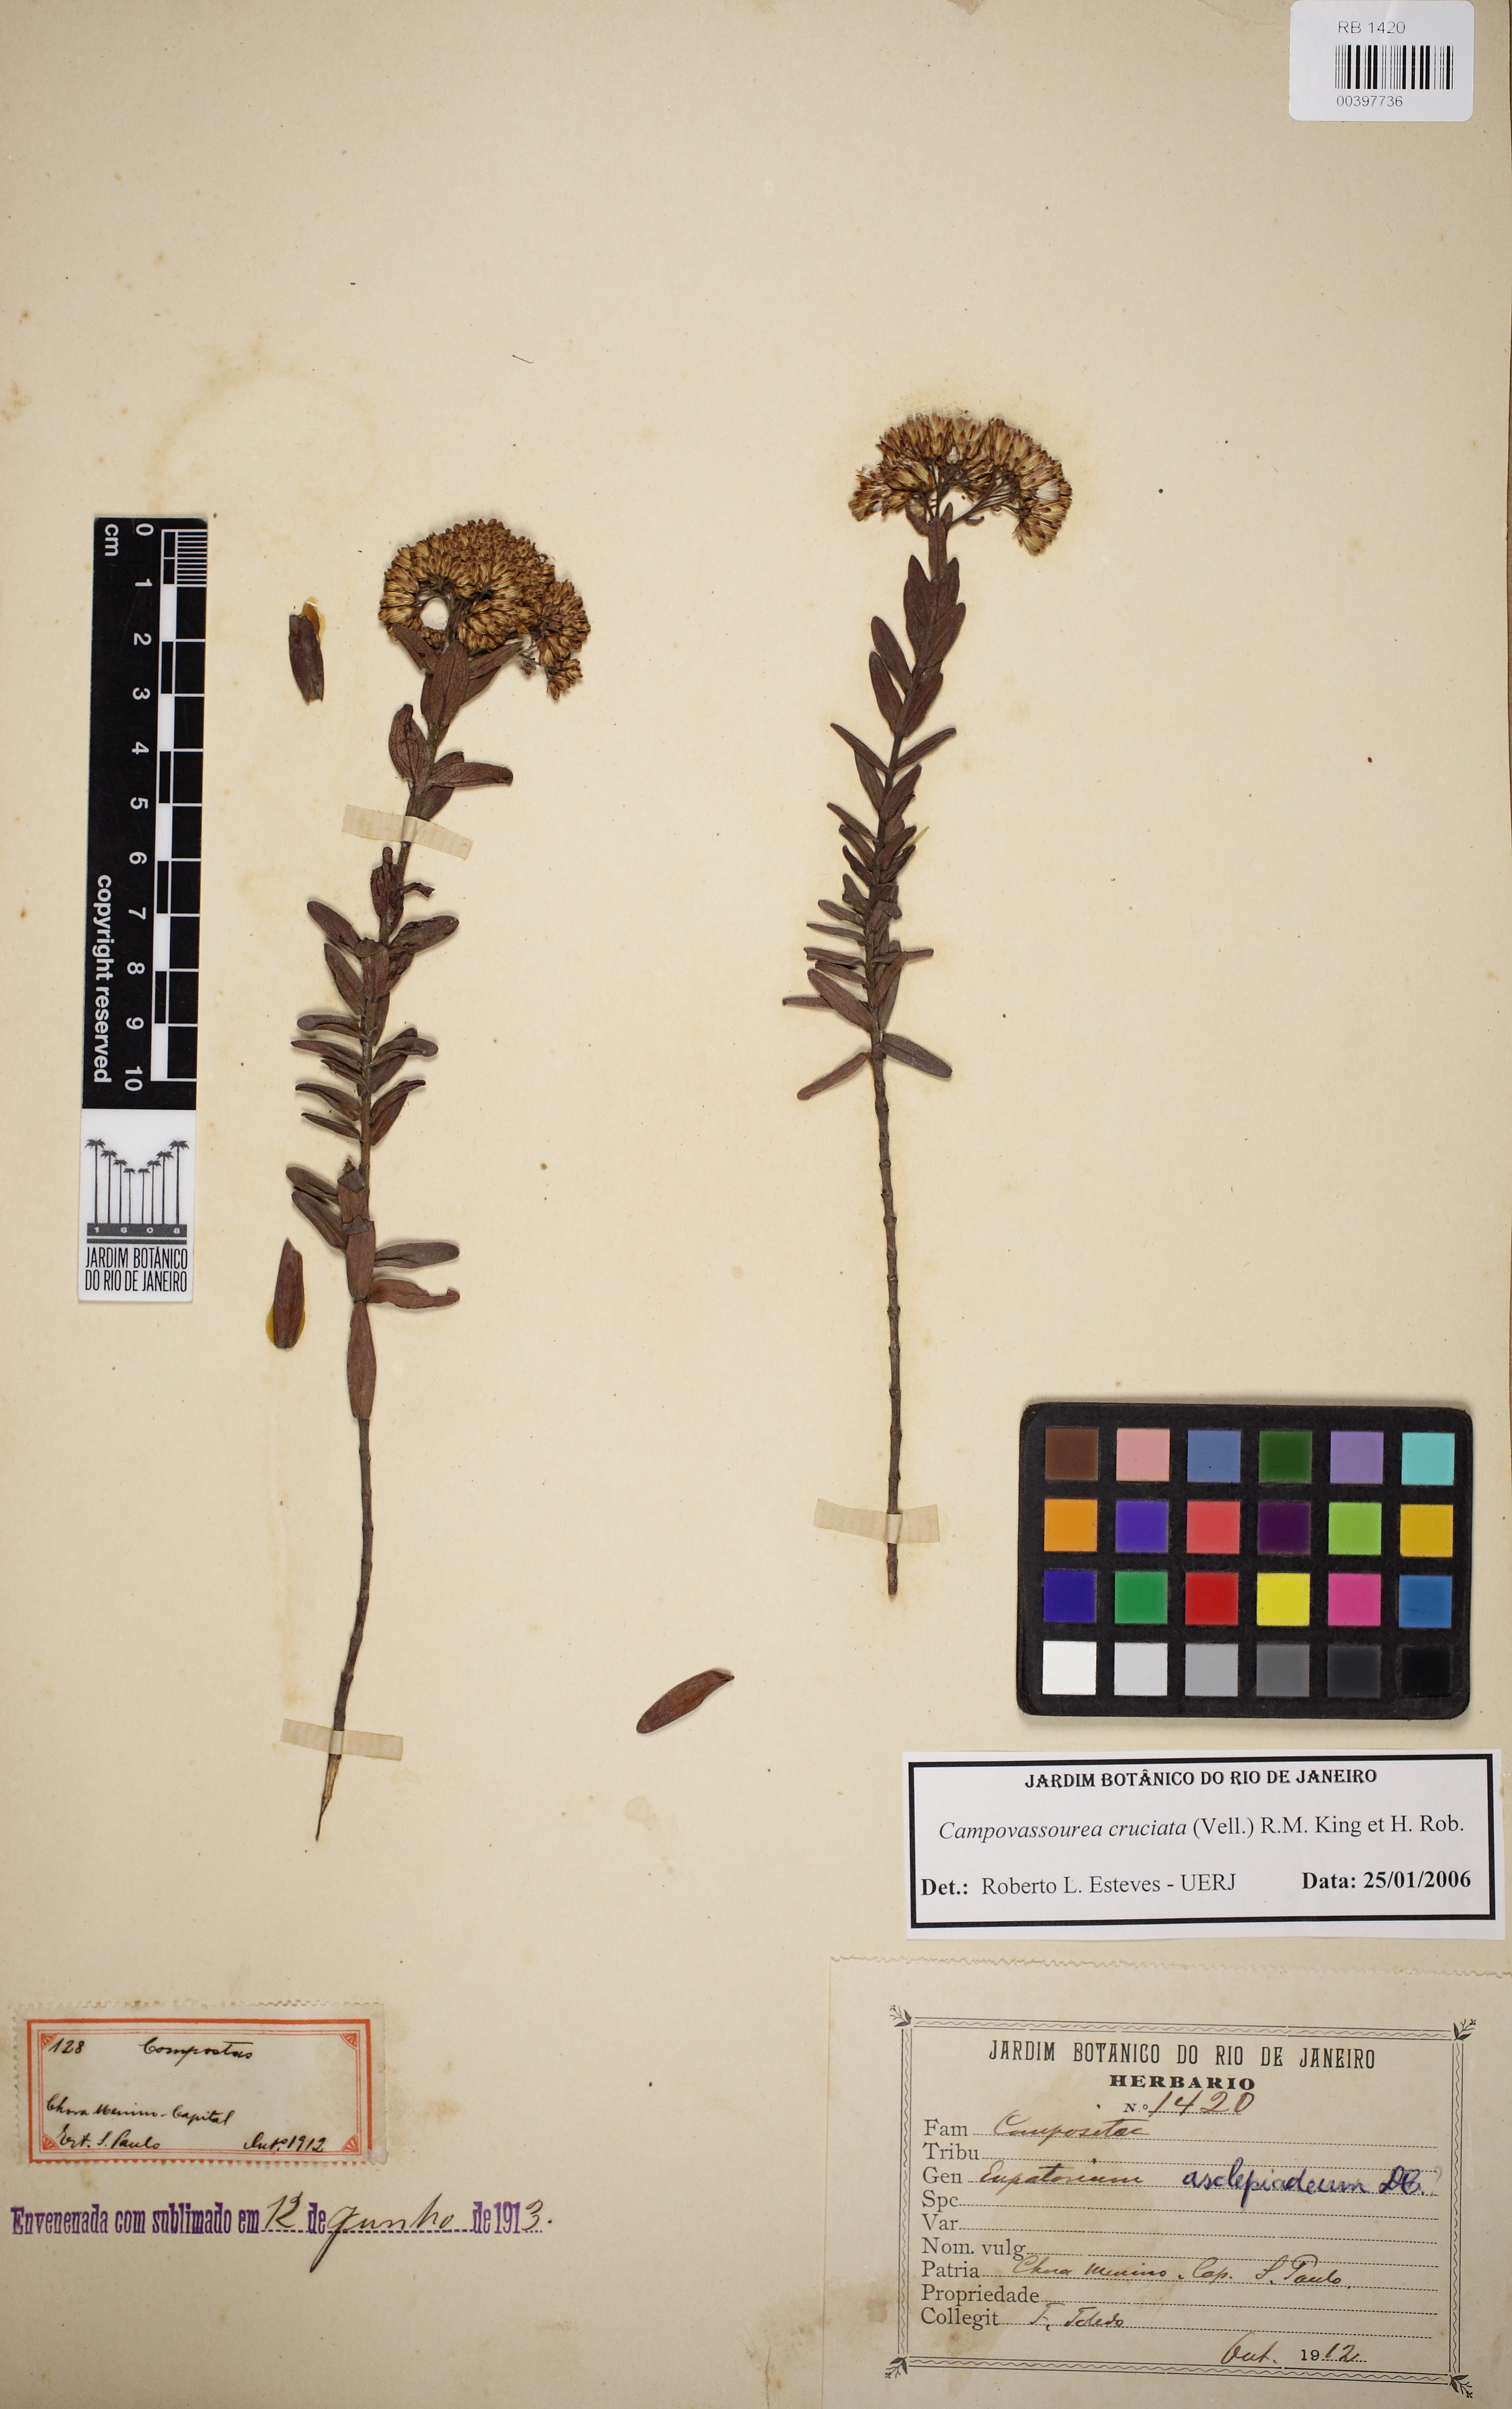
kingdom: Plantae
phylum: Tracheophyta
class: Magnoliopsida
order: Asterales
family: Asteraceae
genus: Campovassouria
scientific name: Campovassouria cruciata
